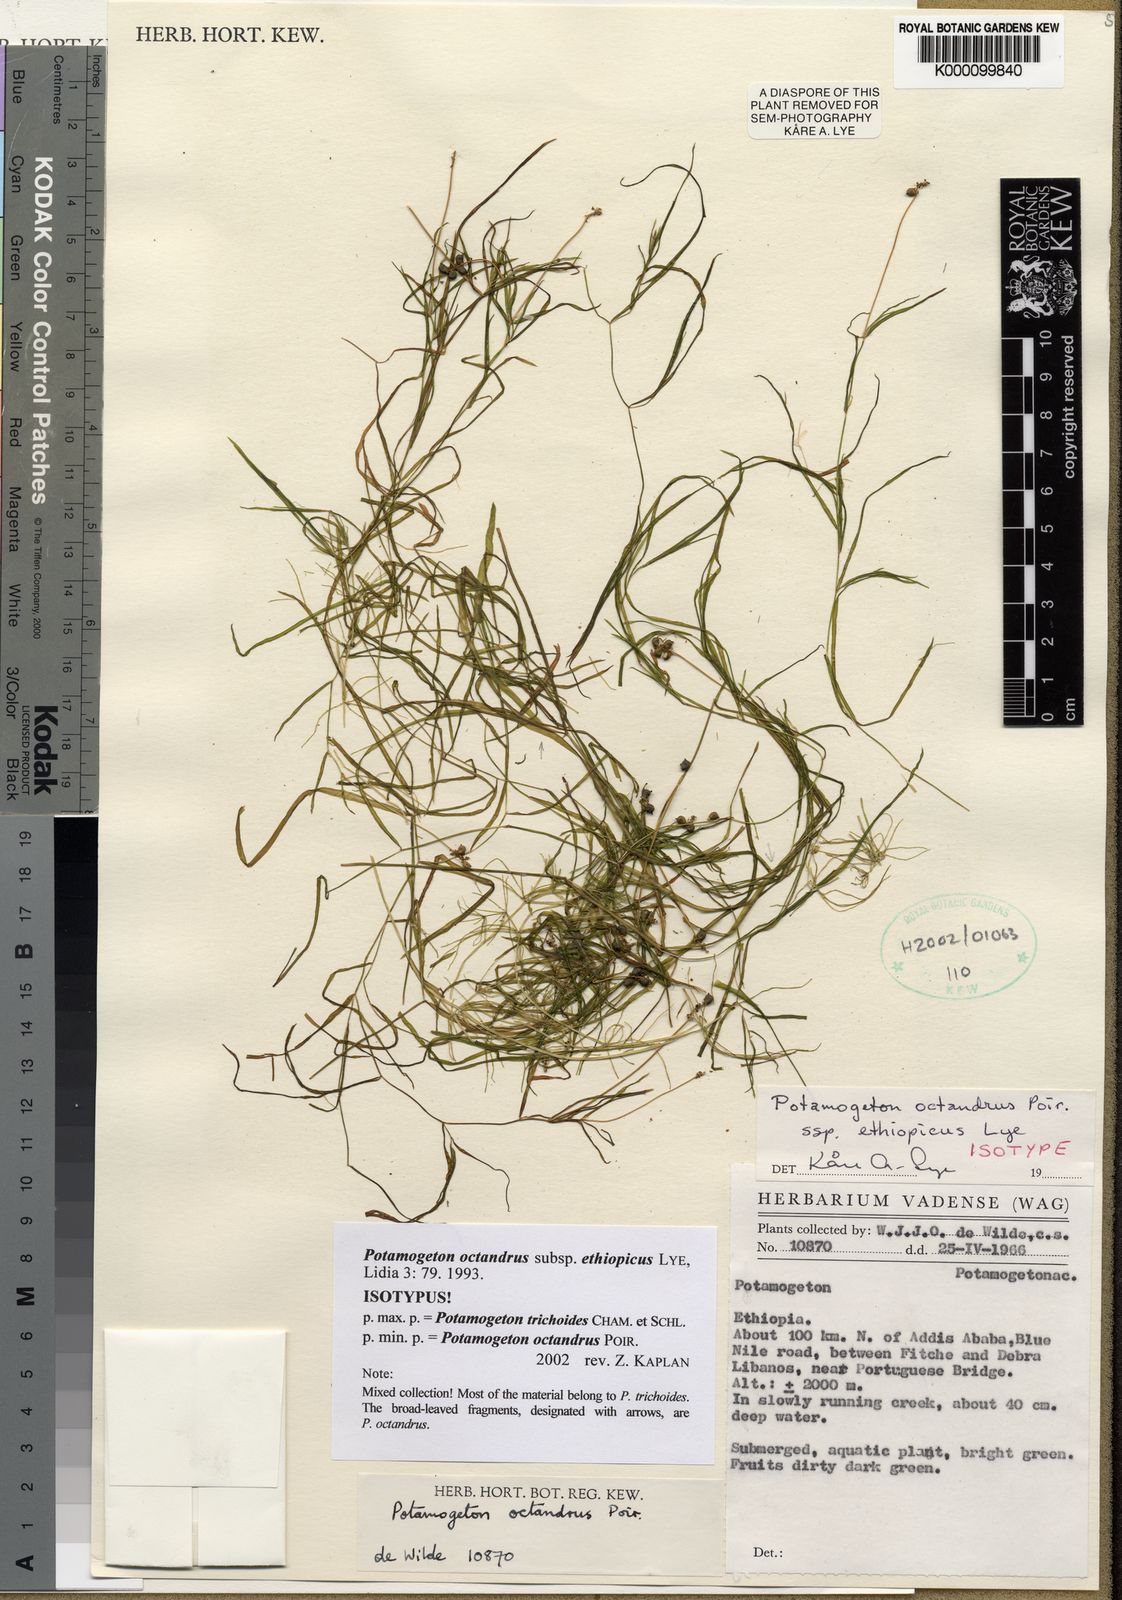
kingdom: Plantae
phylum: Tracheophyta
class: Liliopsida
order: Alismatales
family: Potamogetonaceae
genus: Potamogeton
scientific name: Potamogeton trichoides
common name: Hairlike pondweed
